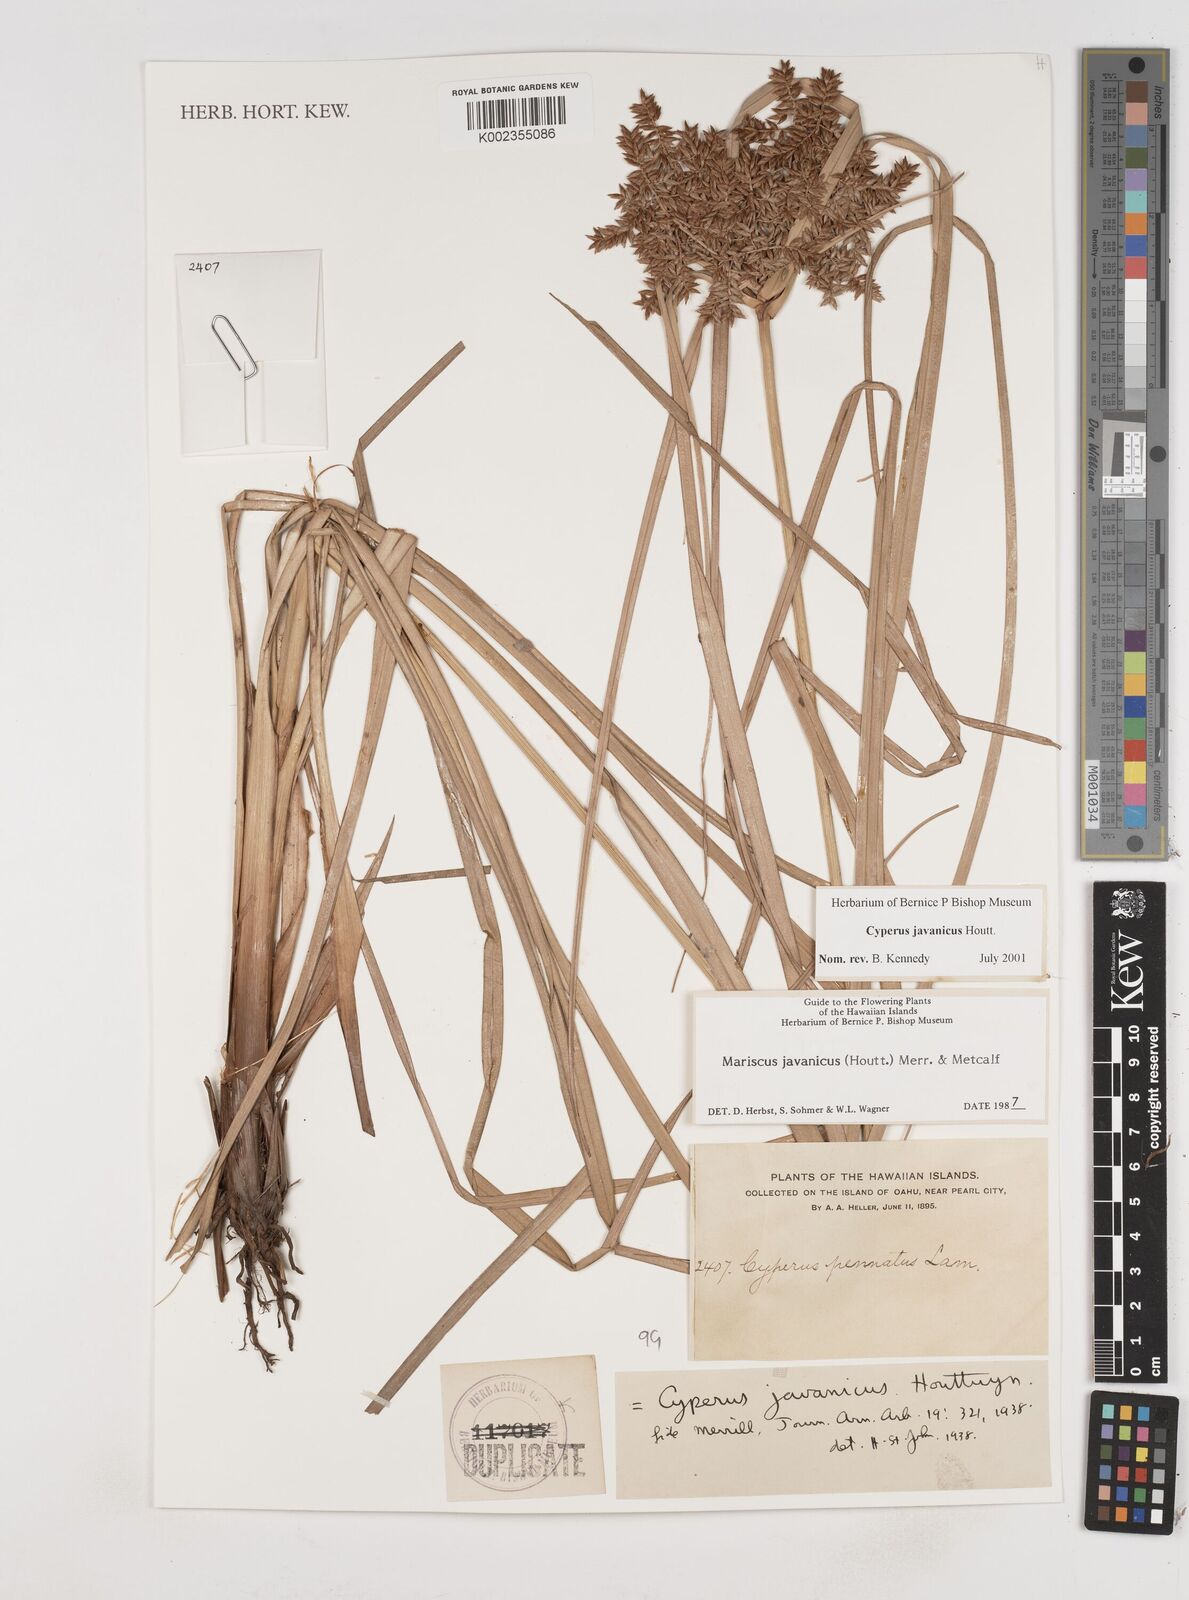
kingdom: Plantae
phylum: Tracheophyta
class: Liliopsida
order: Poales
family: Cyperaceae
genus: Cyperus
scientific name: Cyperus javanicus
